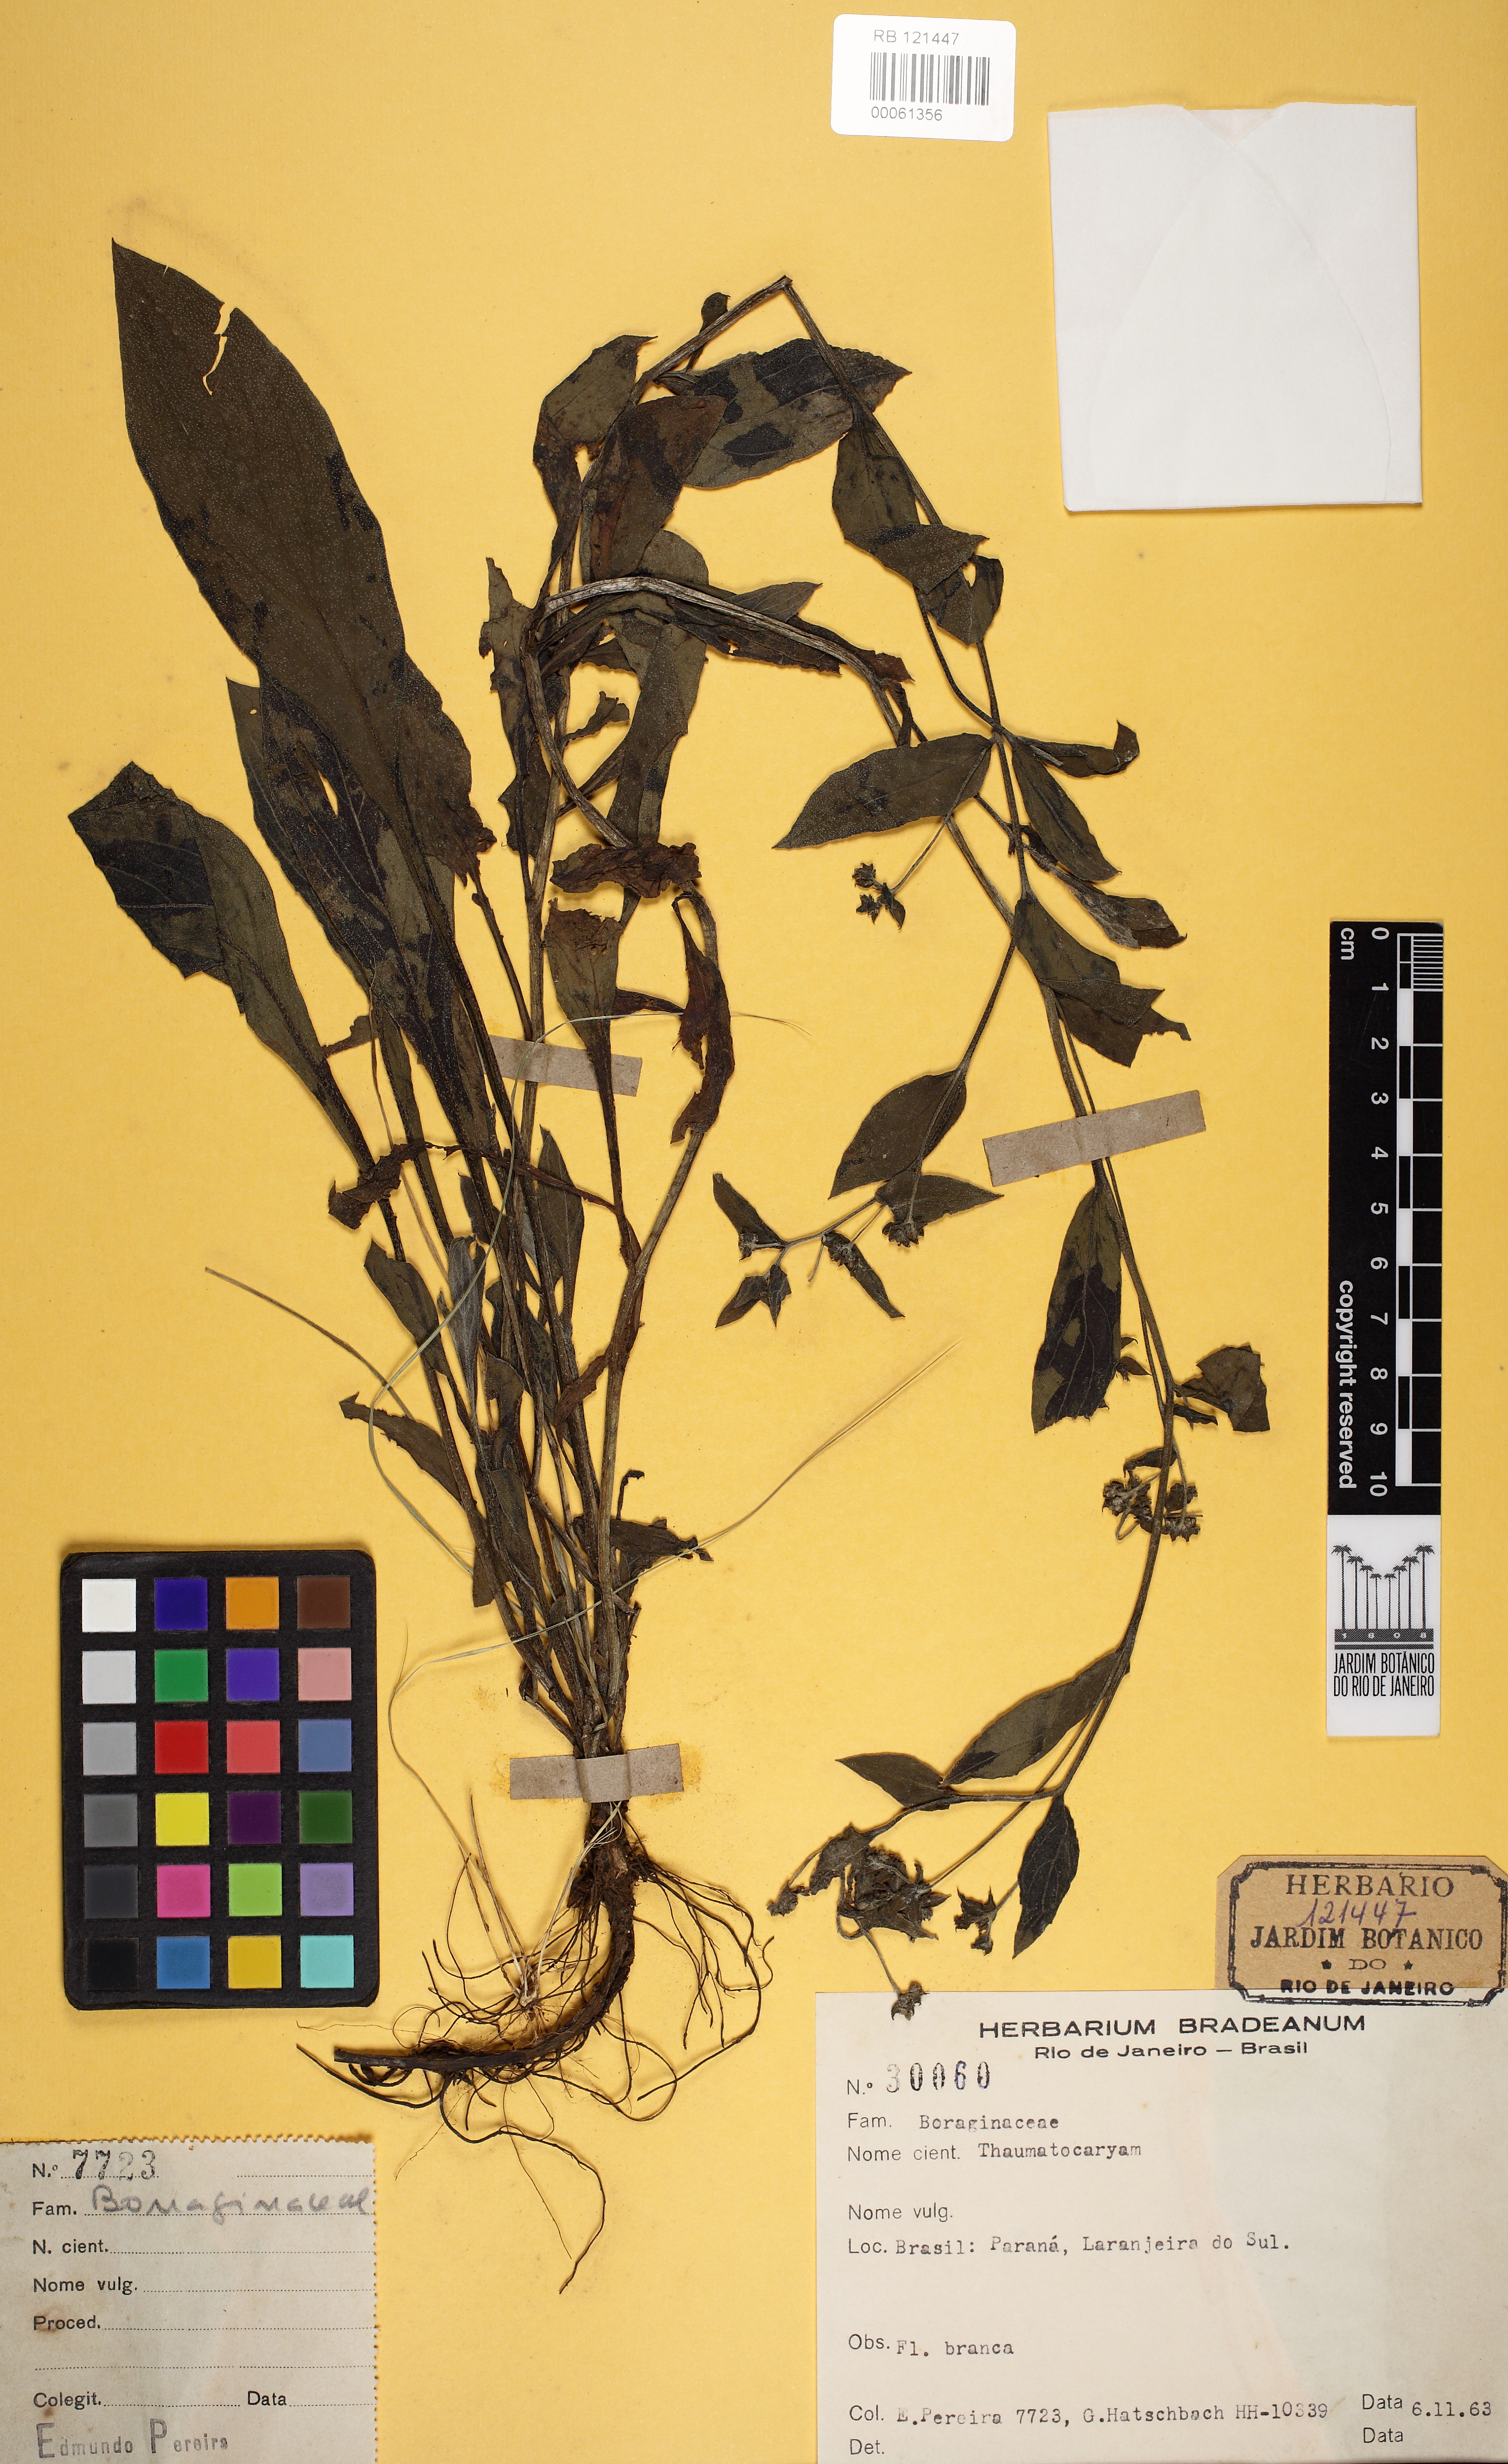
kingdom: Plantae
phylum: Tracheophyta
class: Magnoliopsida
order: Boraginales
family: Boraginaceae
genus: Thaumatocaryon
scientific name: Thaumatocaryon
